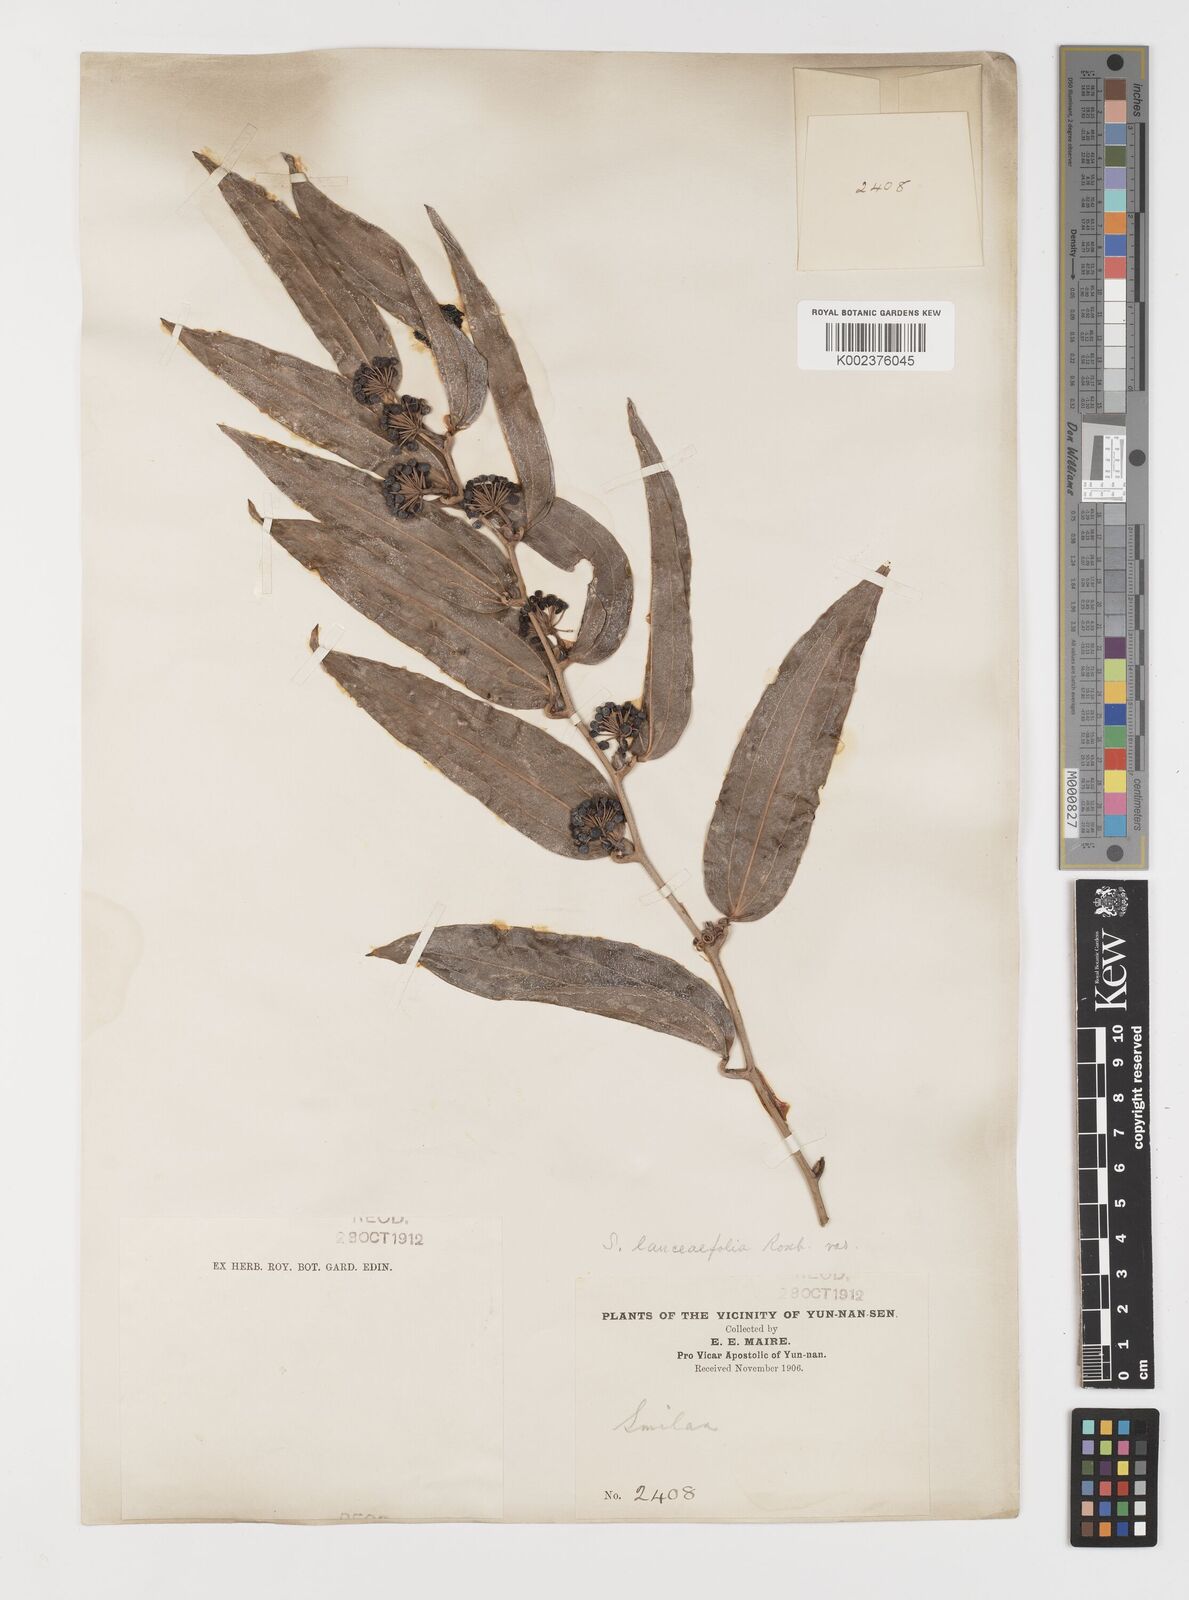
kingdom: Plantae
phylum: Tracheophyta
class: Liliopsida
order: Liliales
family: Smilacaceae
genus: Smilax
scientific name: Smilax lanceifolia
